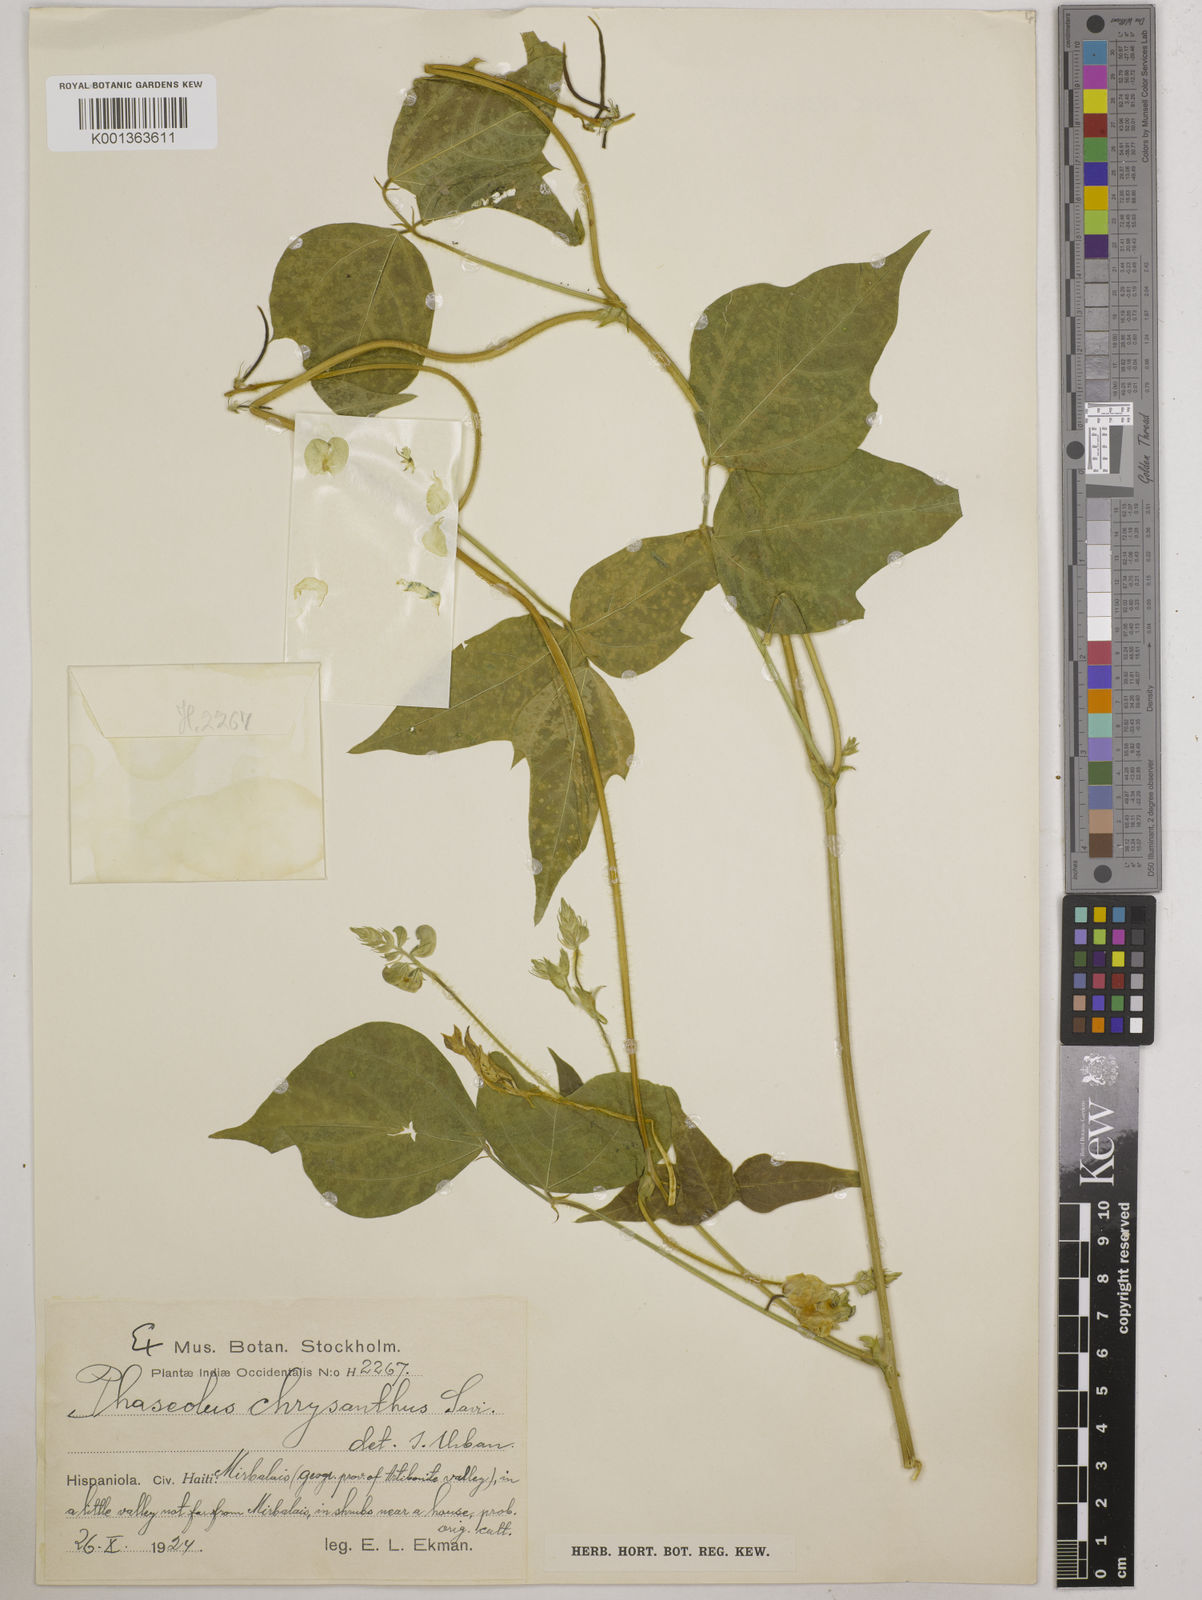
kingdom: Plantae
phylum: Tracheophyta
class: Magnoliopsida
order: Fabales
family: Fabaceae
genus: Vigna
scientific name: Vigna umbellata
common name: Oriental-bean
